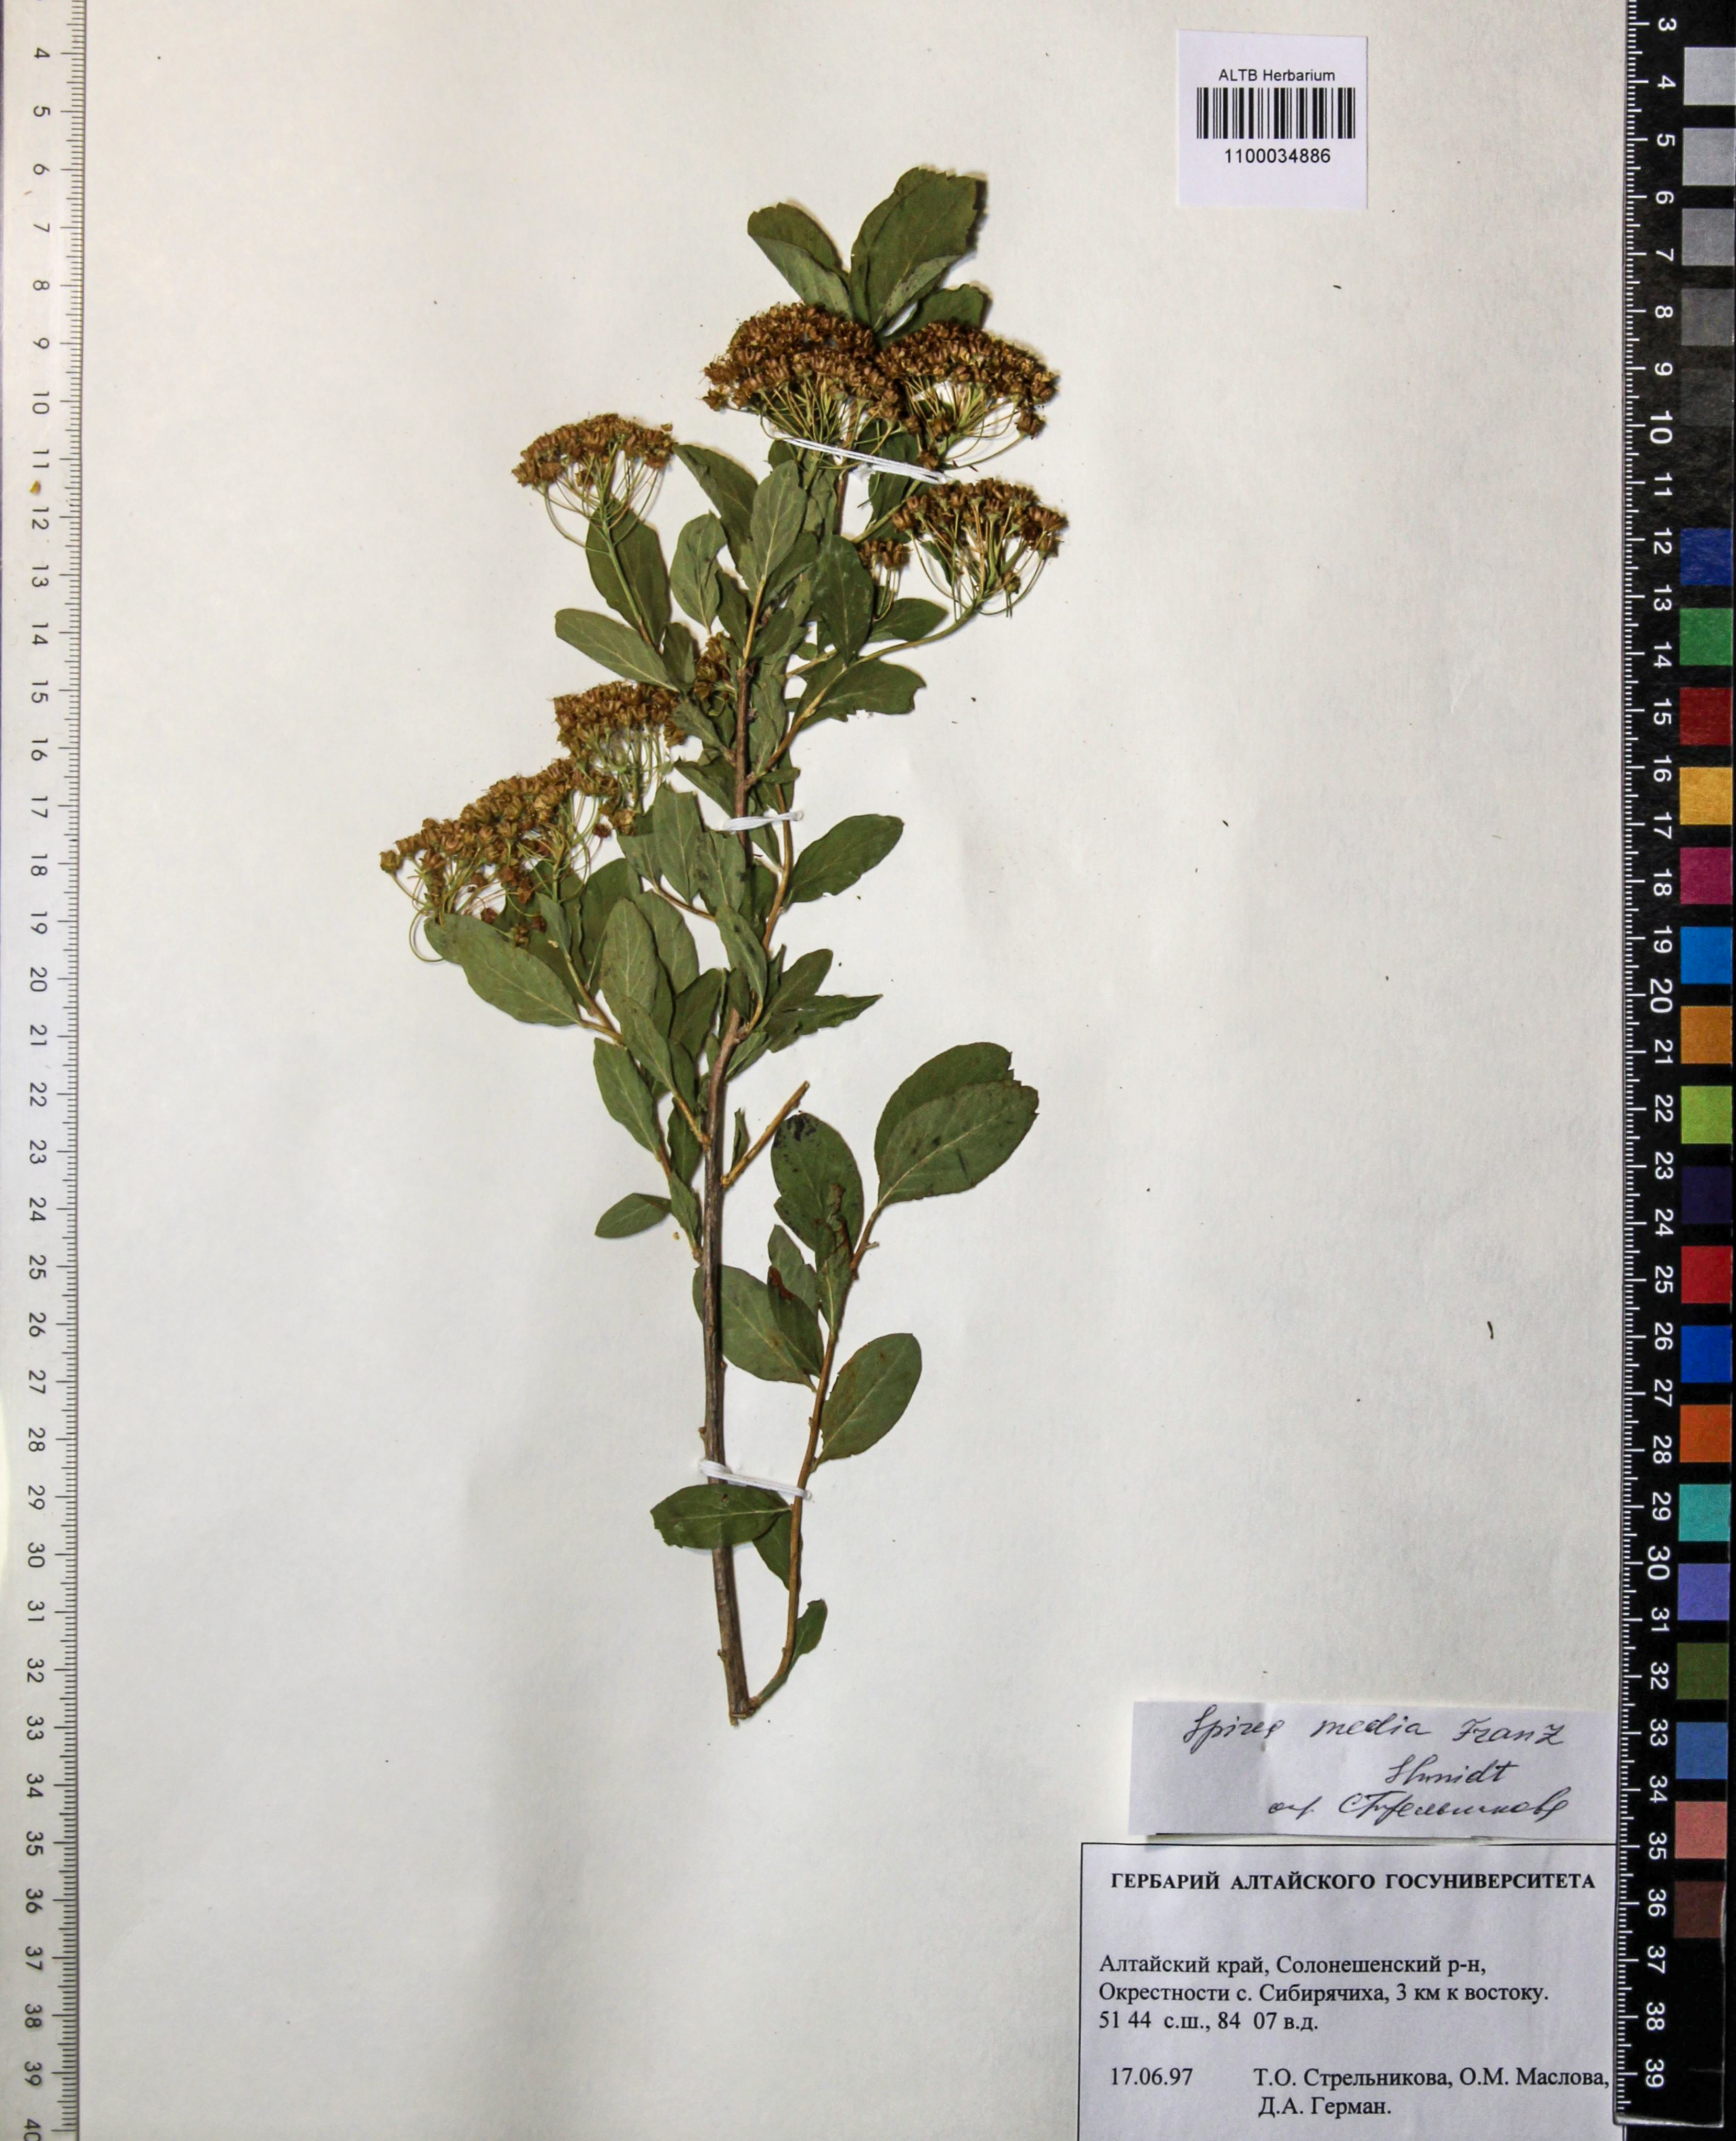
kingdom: Plantae
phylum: Tracheophyta
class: Magnoliopsida
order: Rosales
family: Rosaceae
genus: Spiraea
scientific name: Spiraea media
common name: Russian spiraea
